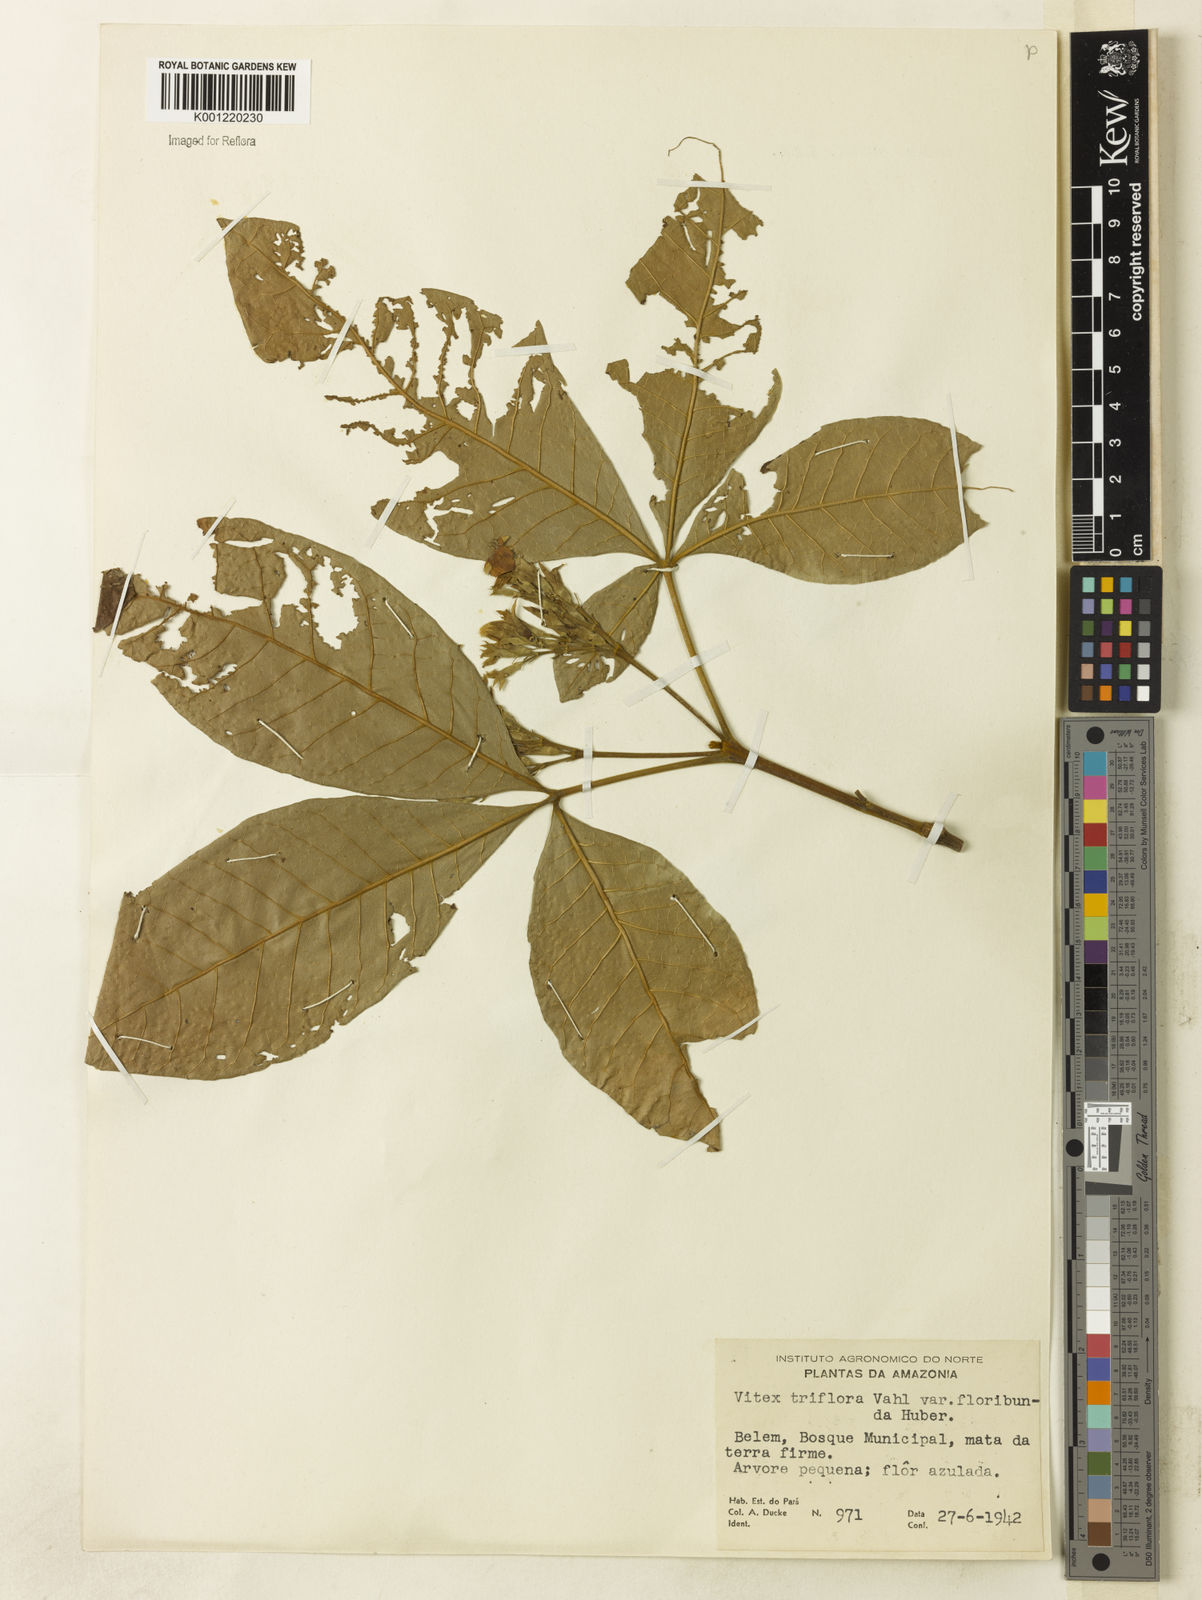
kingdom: Plantae
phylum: Tracheophyta
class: Magnoliopsida
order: Lamiales
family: Lamiaceae
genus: Vitex
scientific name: Vitex triflora
